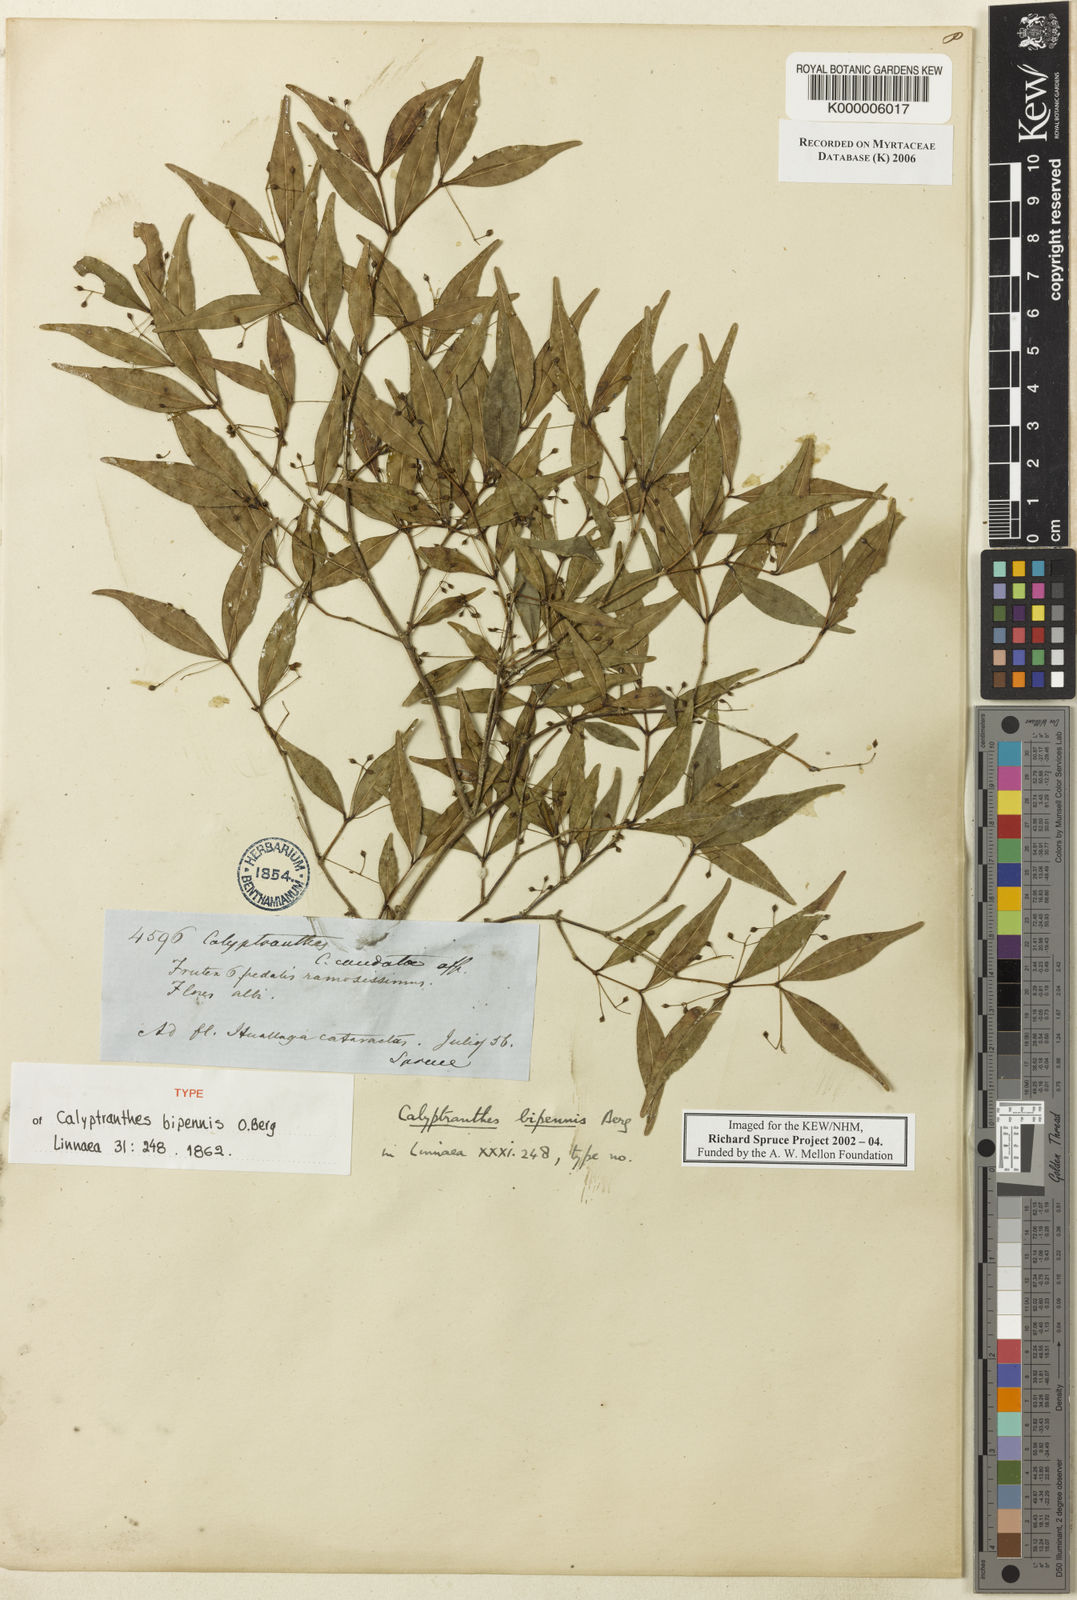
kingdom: Plantae
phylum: Tracheophyta
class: Magnoliopsida
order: Myrtales
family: Myrtaceae
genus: Myrcia
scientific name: Myrcia tenuiflora
